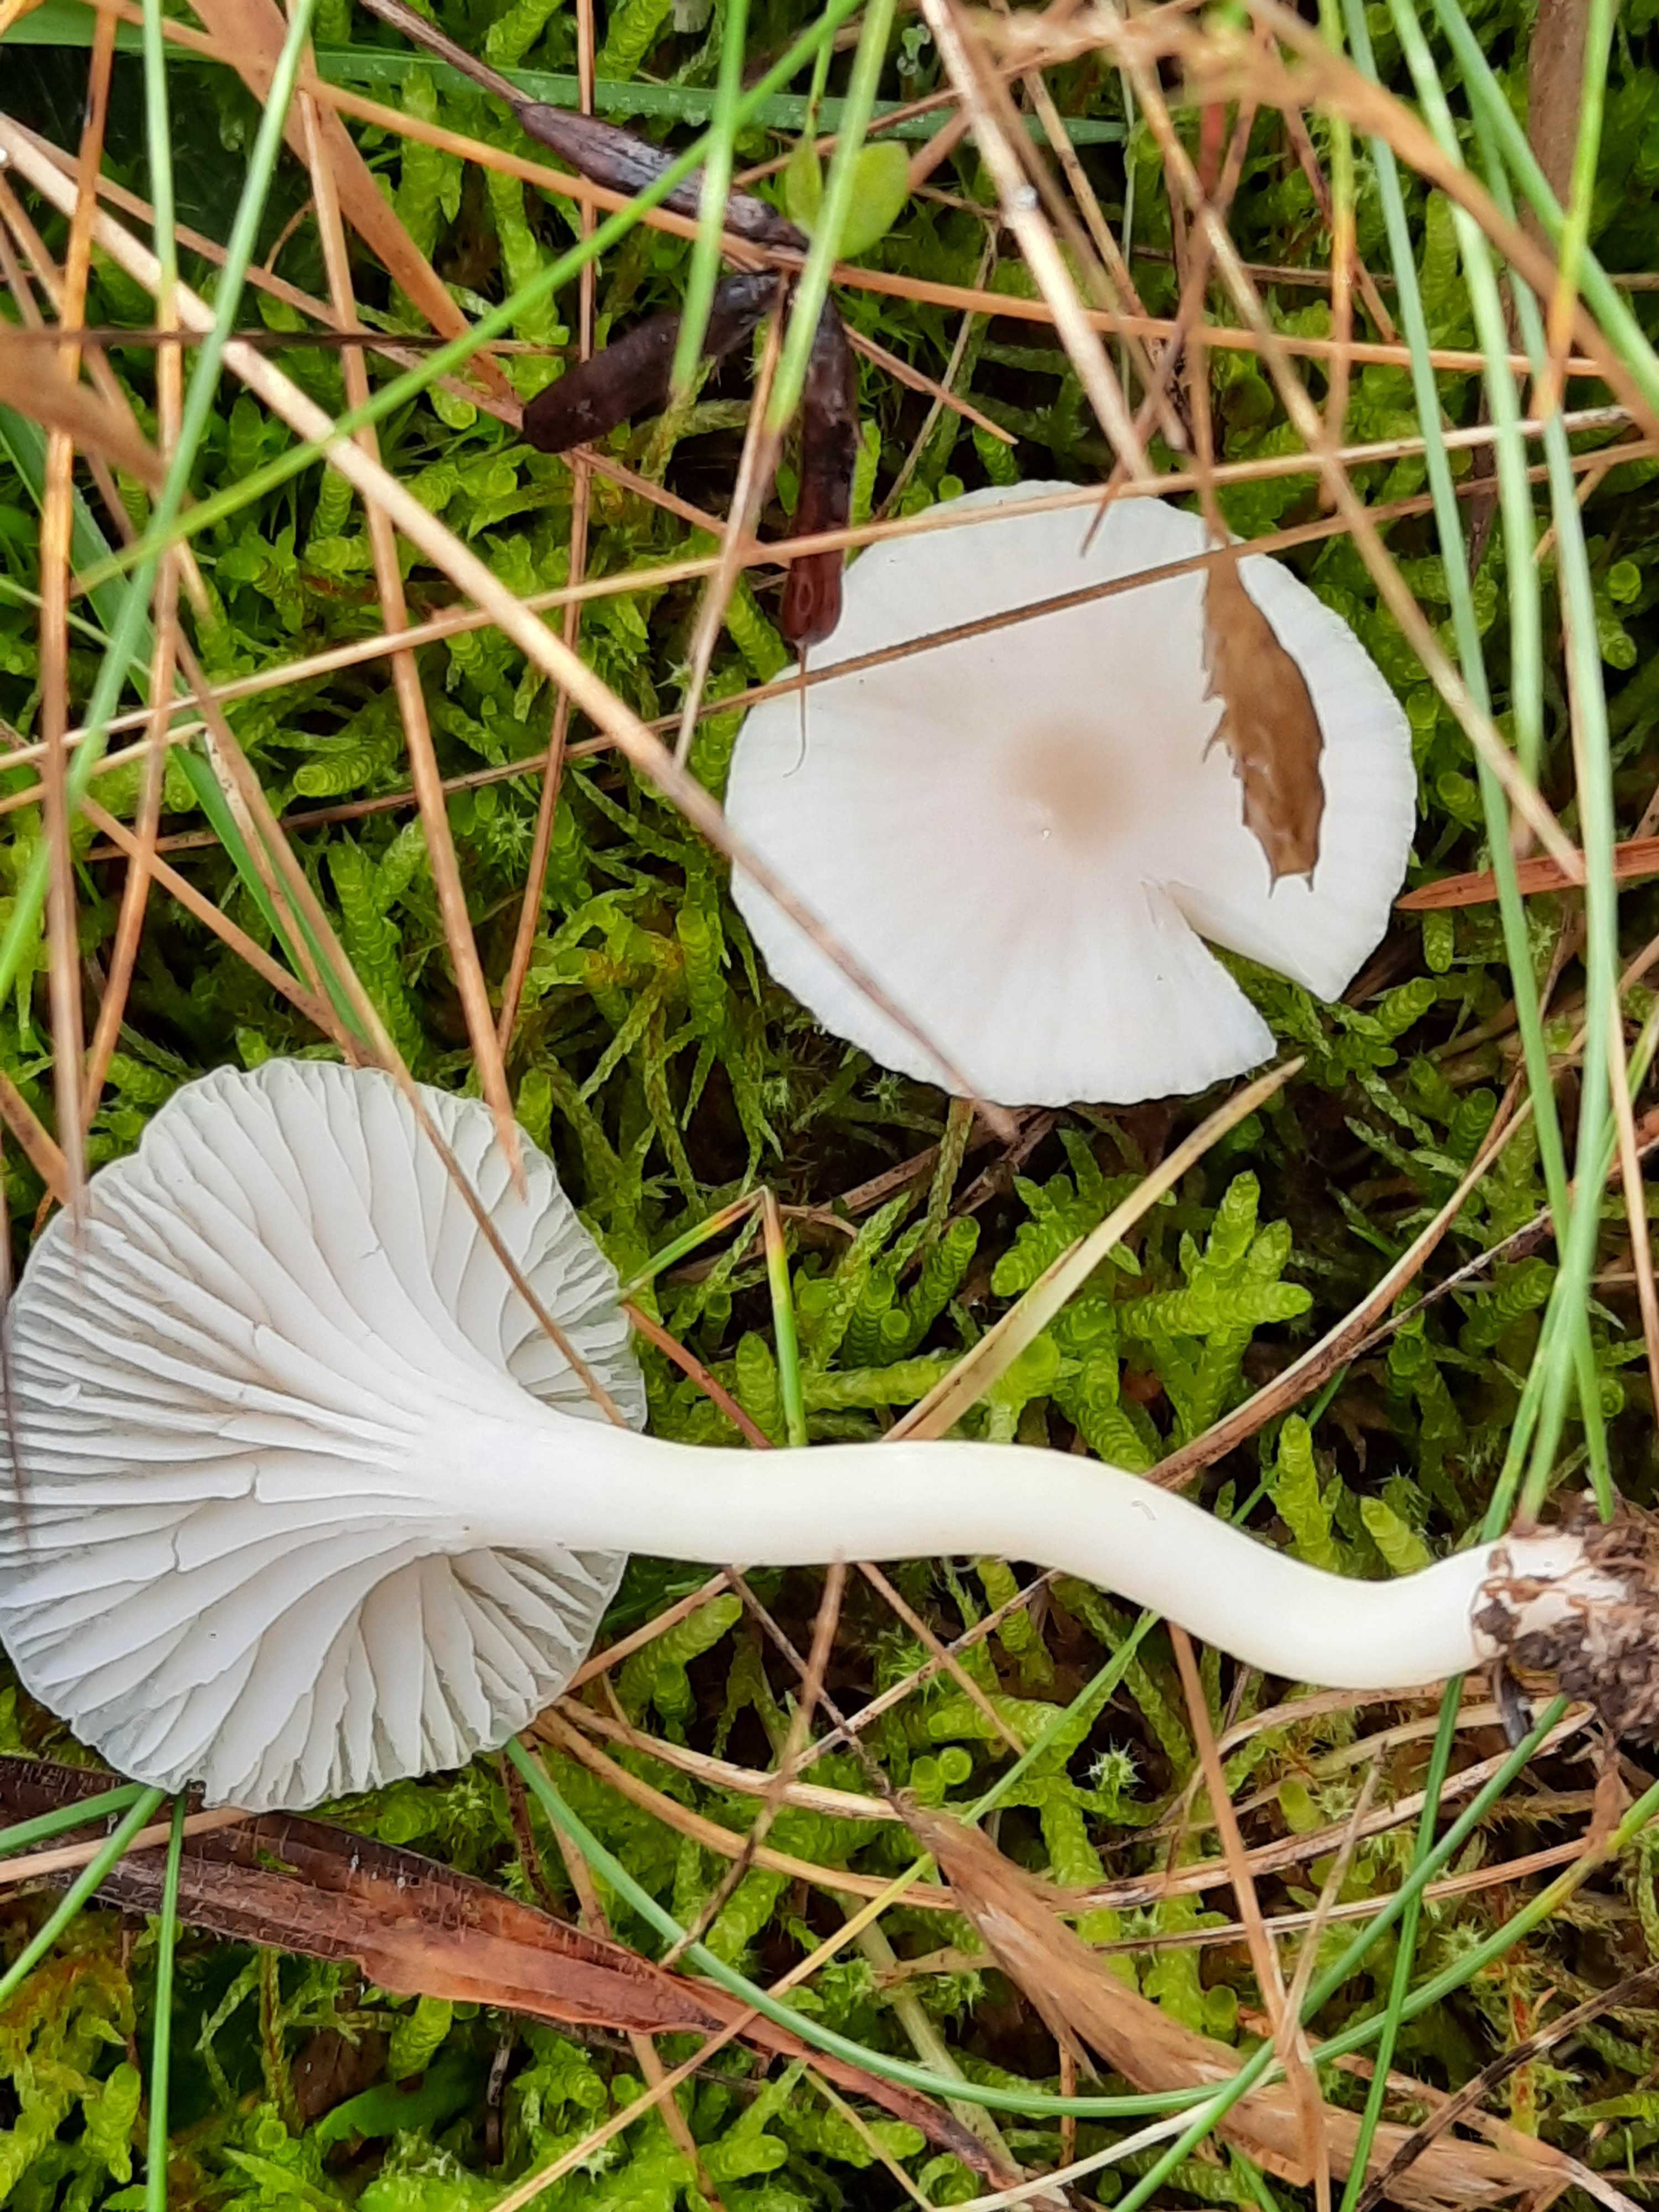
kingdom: Fungi
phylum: Basidiomycota
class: Agaricomycetes
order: Agaricales
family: Hygrophoraceae
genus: Cuphophyllus
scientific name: Cuphophyllus virgineus
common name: snehvid vokshat
